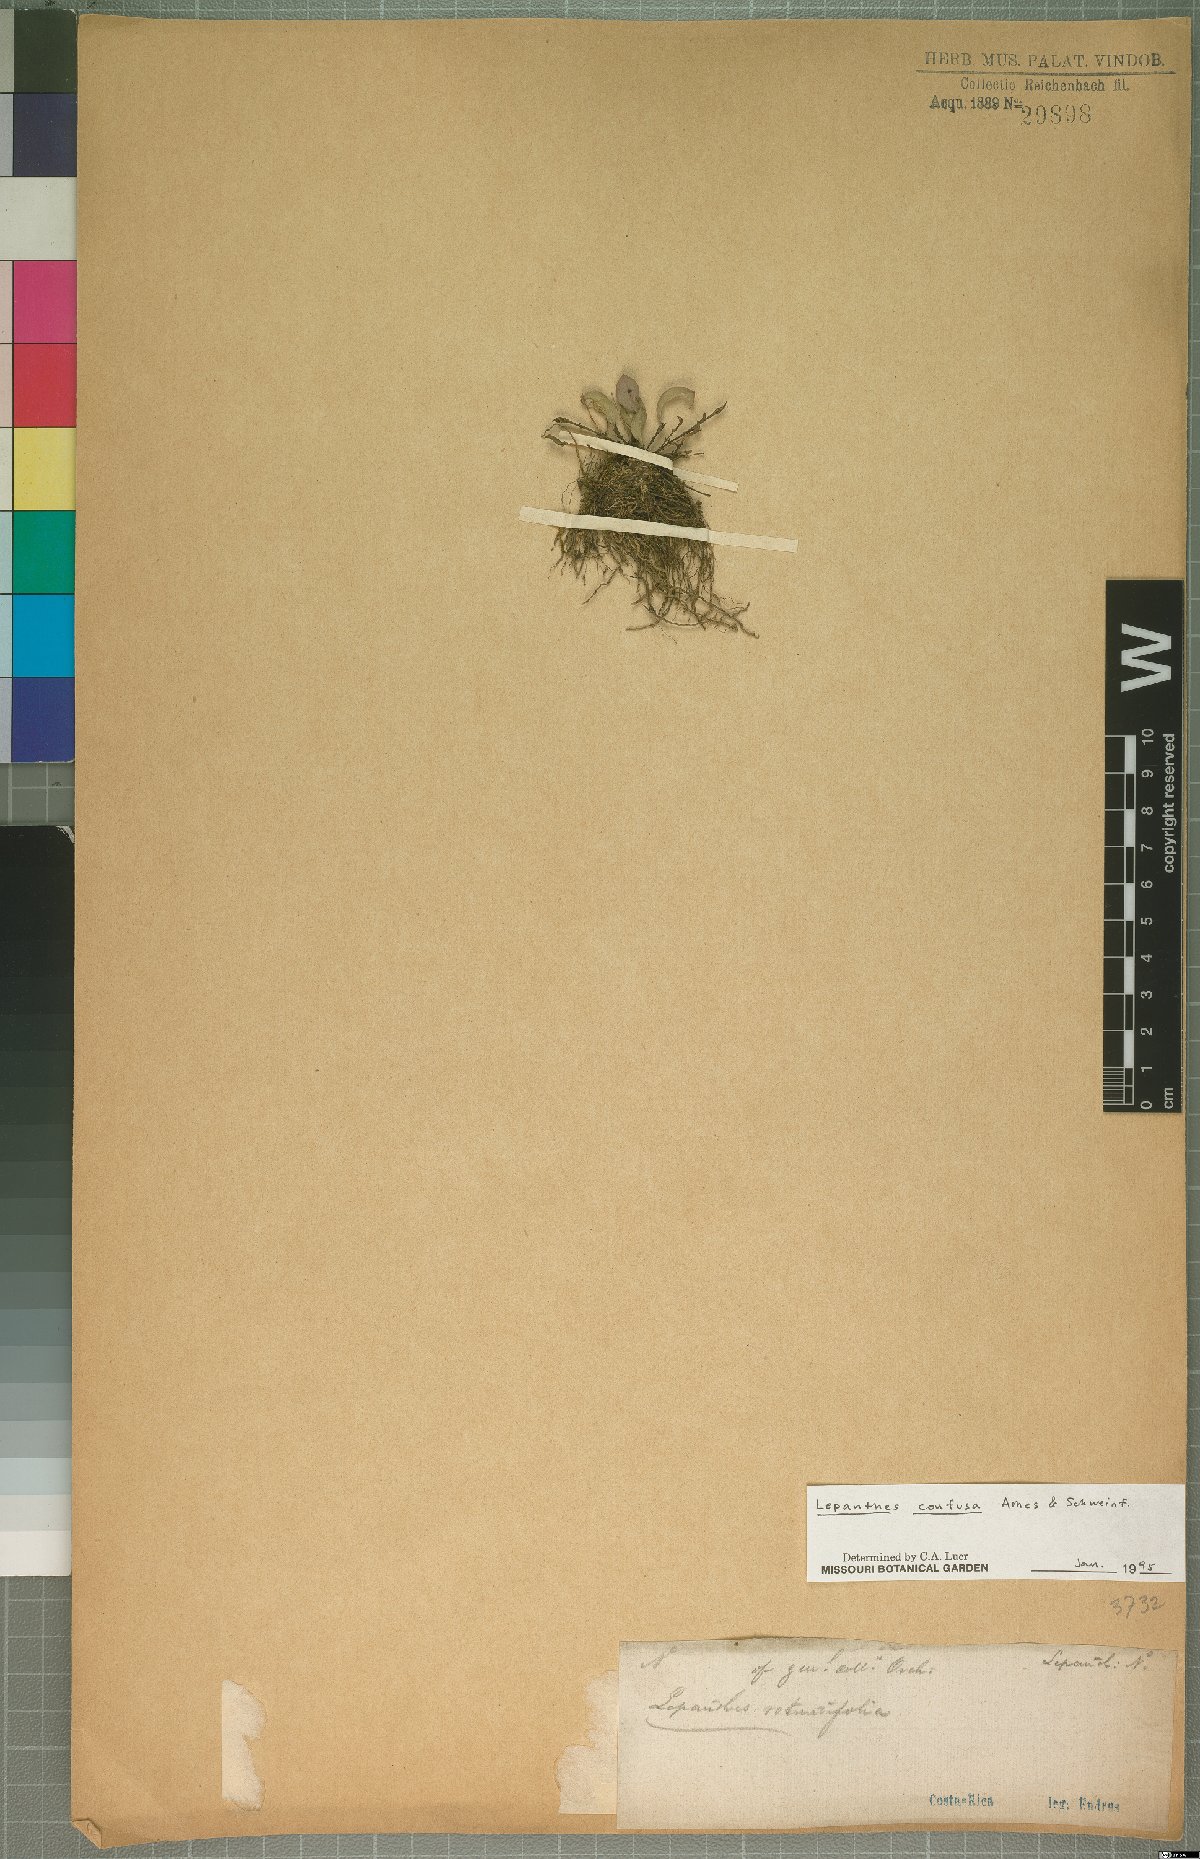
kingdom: Plantae
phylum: Tracheophyta
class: Liliopsida
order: Asparagales
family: Orchidaceae
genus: Lepanthes
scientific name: Lepanthes confusa
